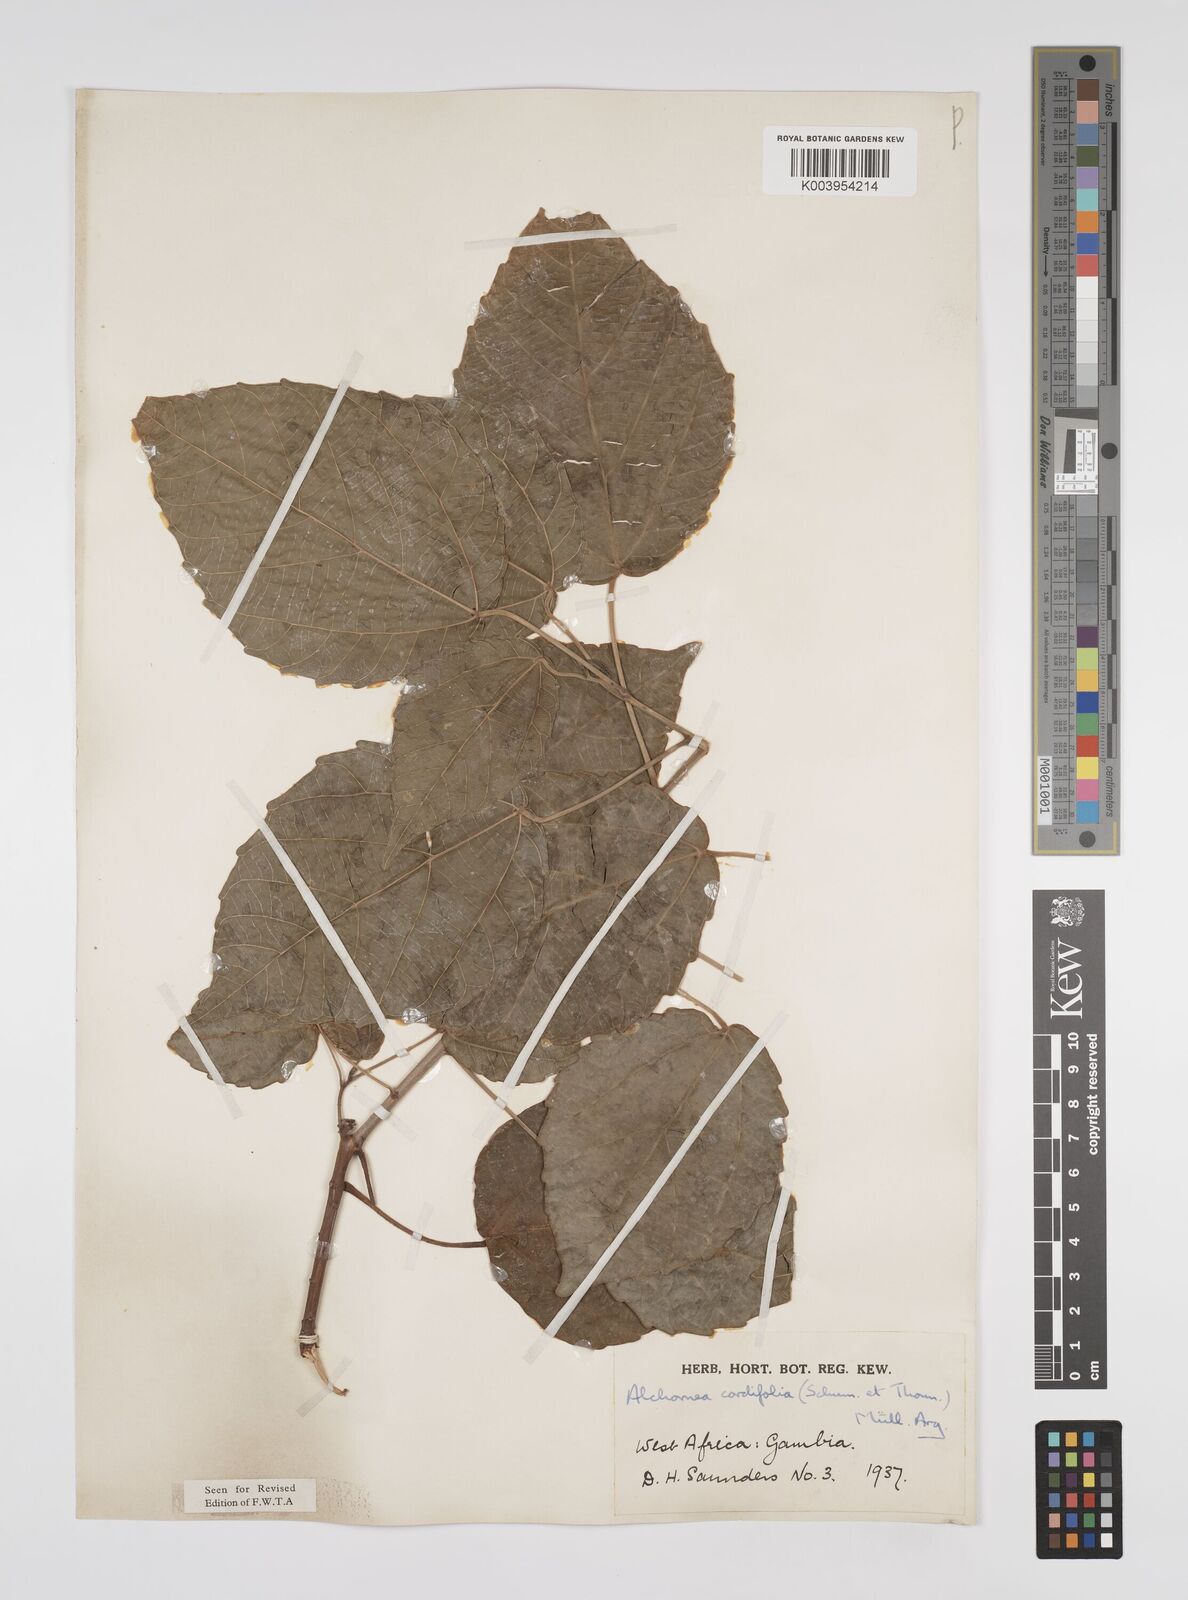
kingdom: Plantae
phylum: Tracheophyta
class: Magnoliopsida
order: Malpighiales
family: Euphorbiaceae
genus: Alchornea
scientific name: Alchornea cordifolia
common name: Christmasbush
